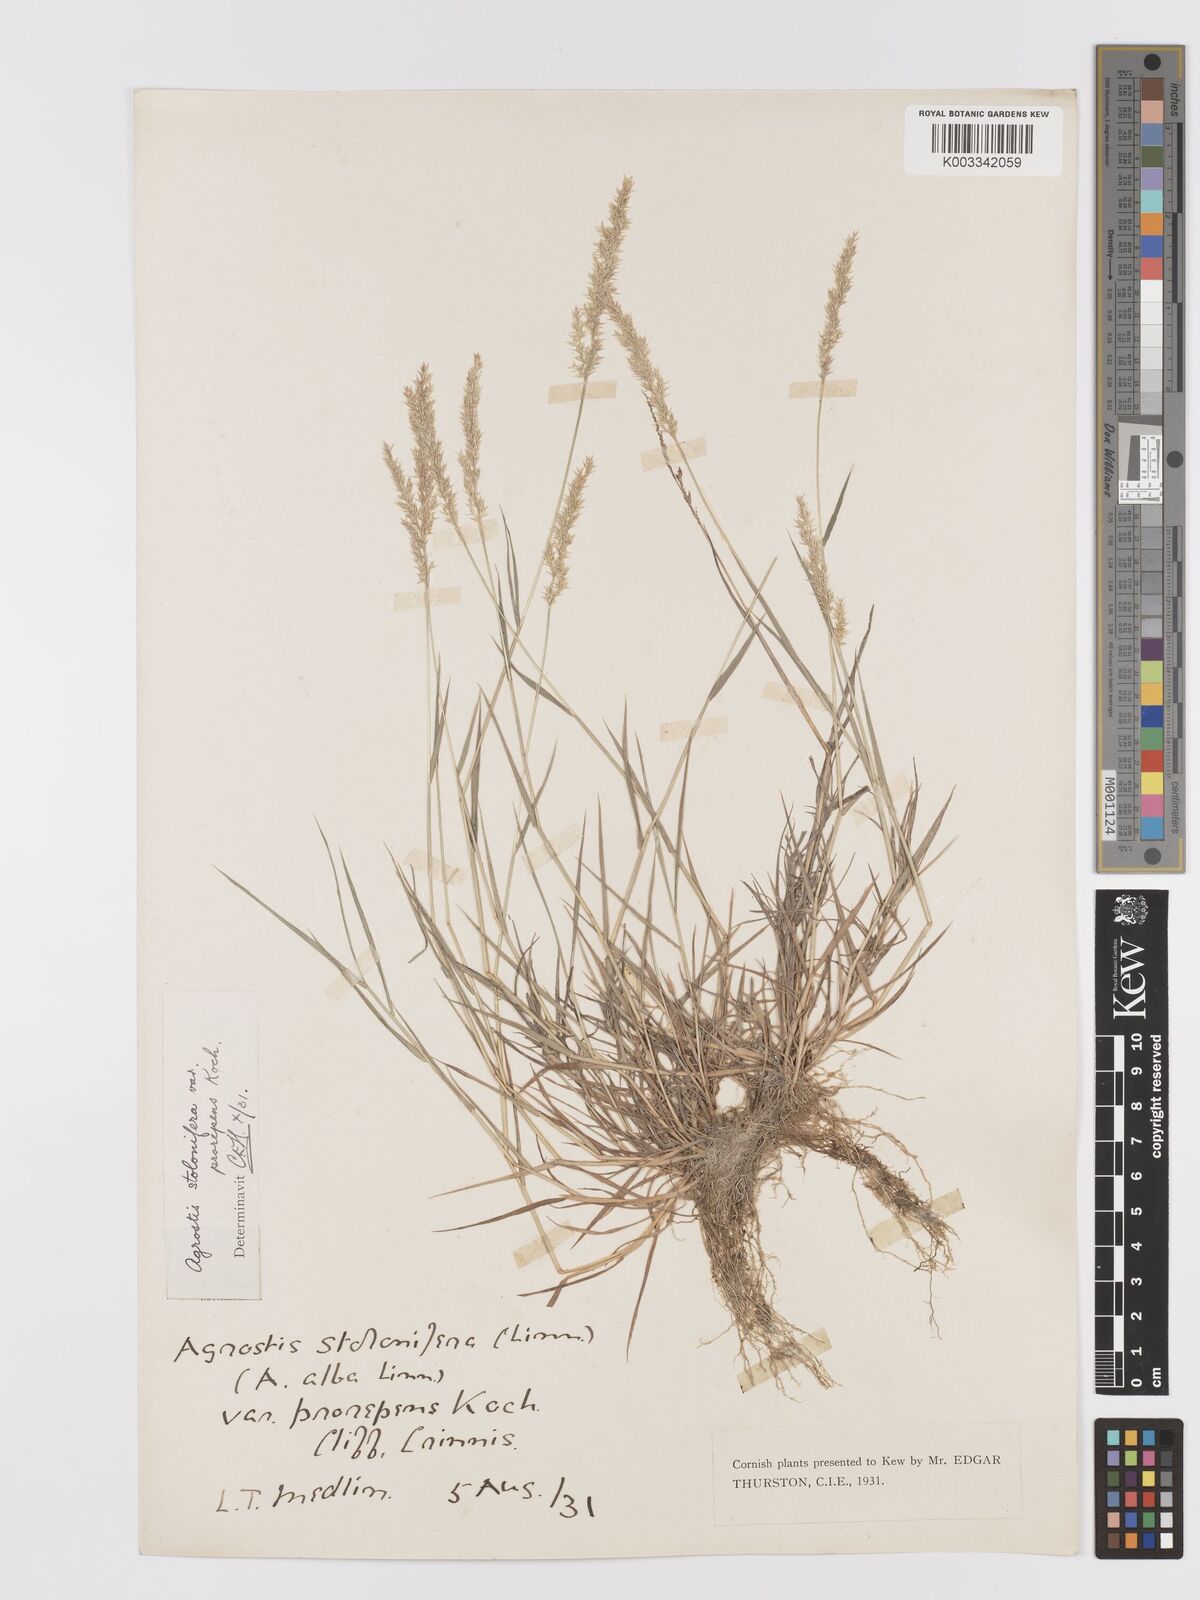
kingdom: Plantae
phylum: Tracheophyta
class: Liliopsida
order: Poales
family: Poaceae
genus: Agrostis
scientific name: Agrostis stolonifera
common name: Creeping bentgrass
